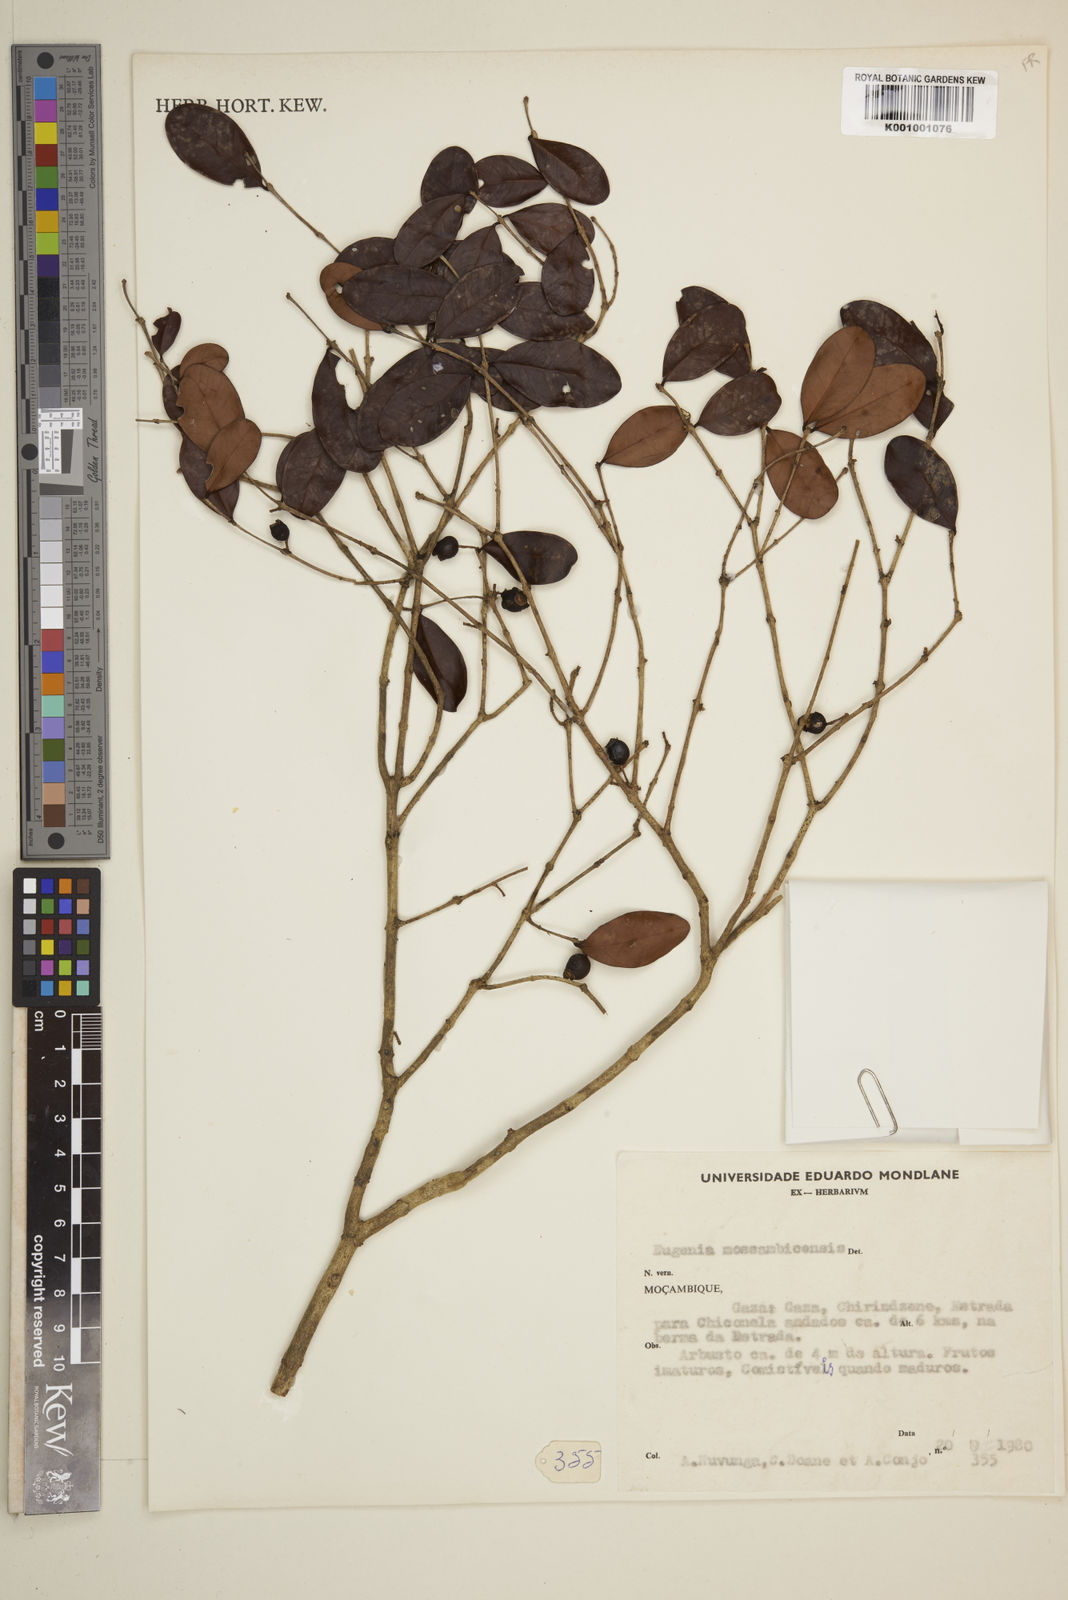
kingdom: Plantae
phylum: Tracheophyta
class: Magnoliopsida
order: Myrtales
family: Myrtaceae
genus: Eugenia
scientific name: Eugenia capensis
